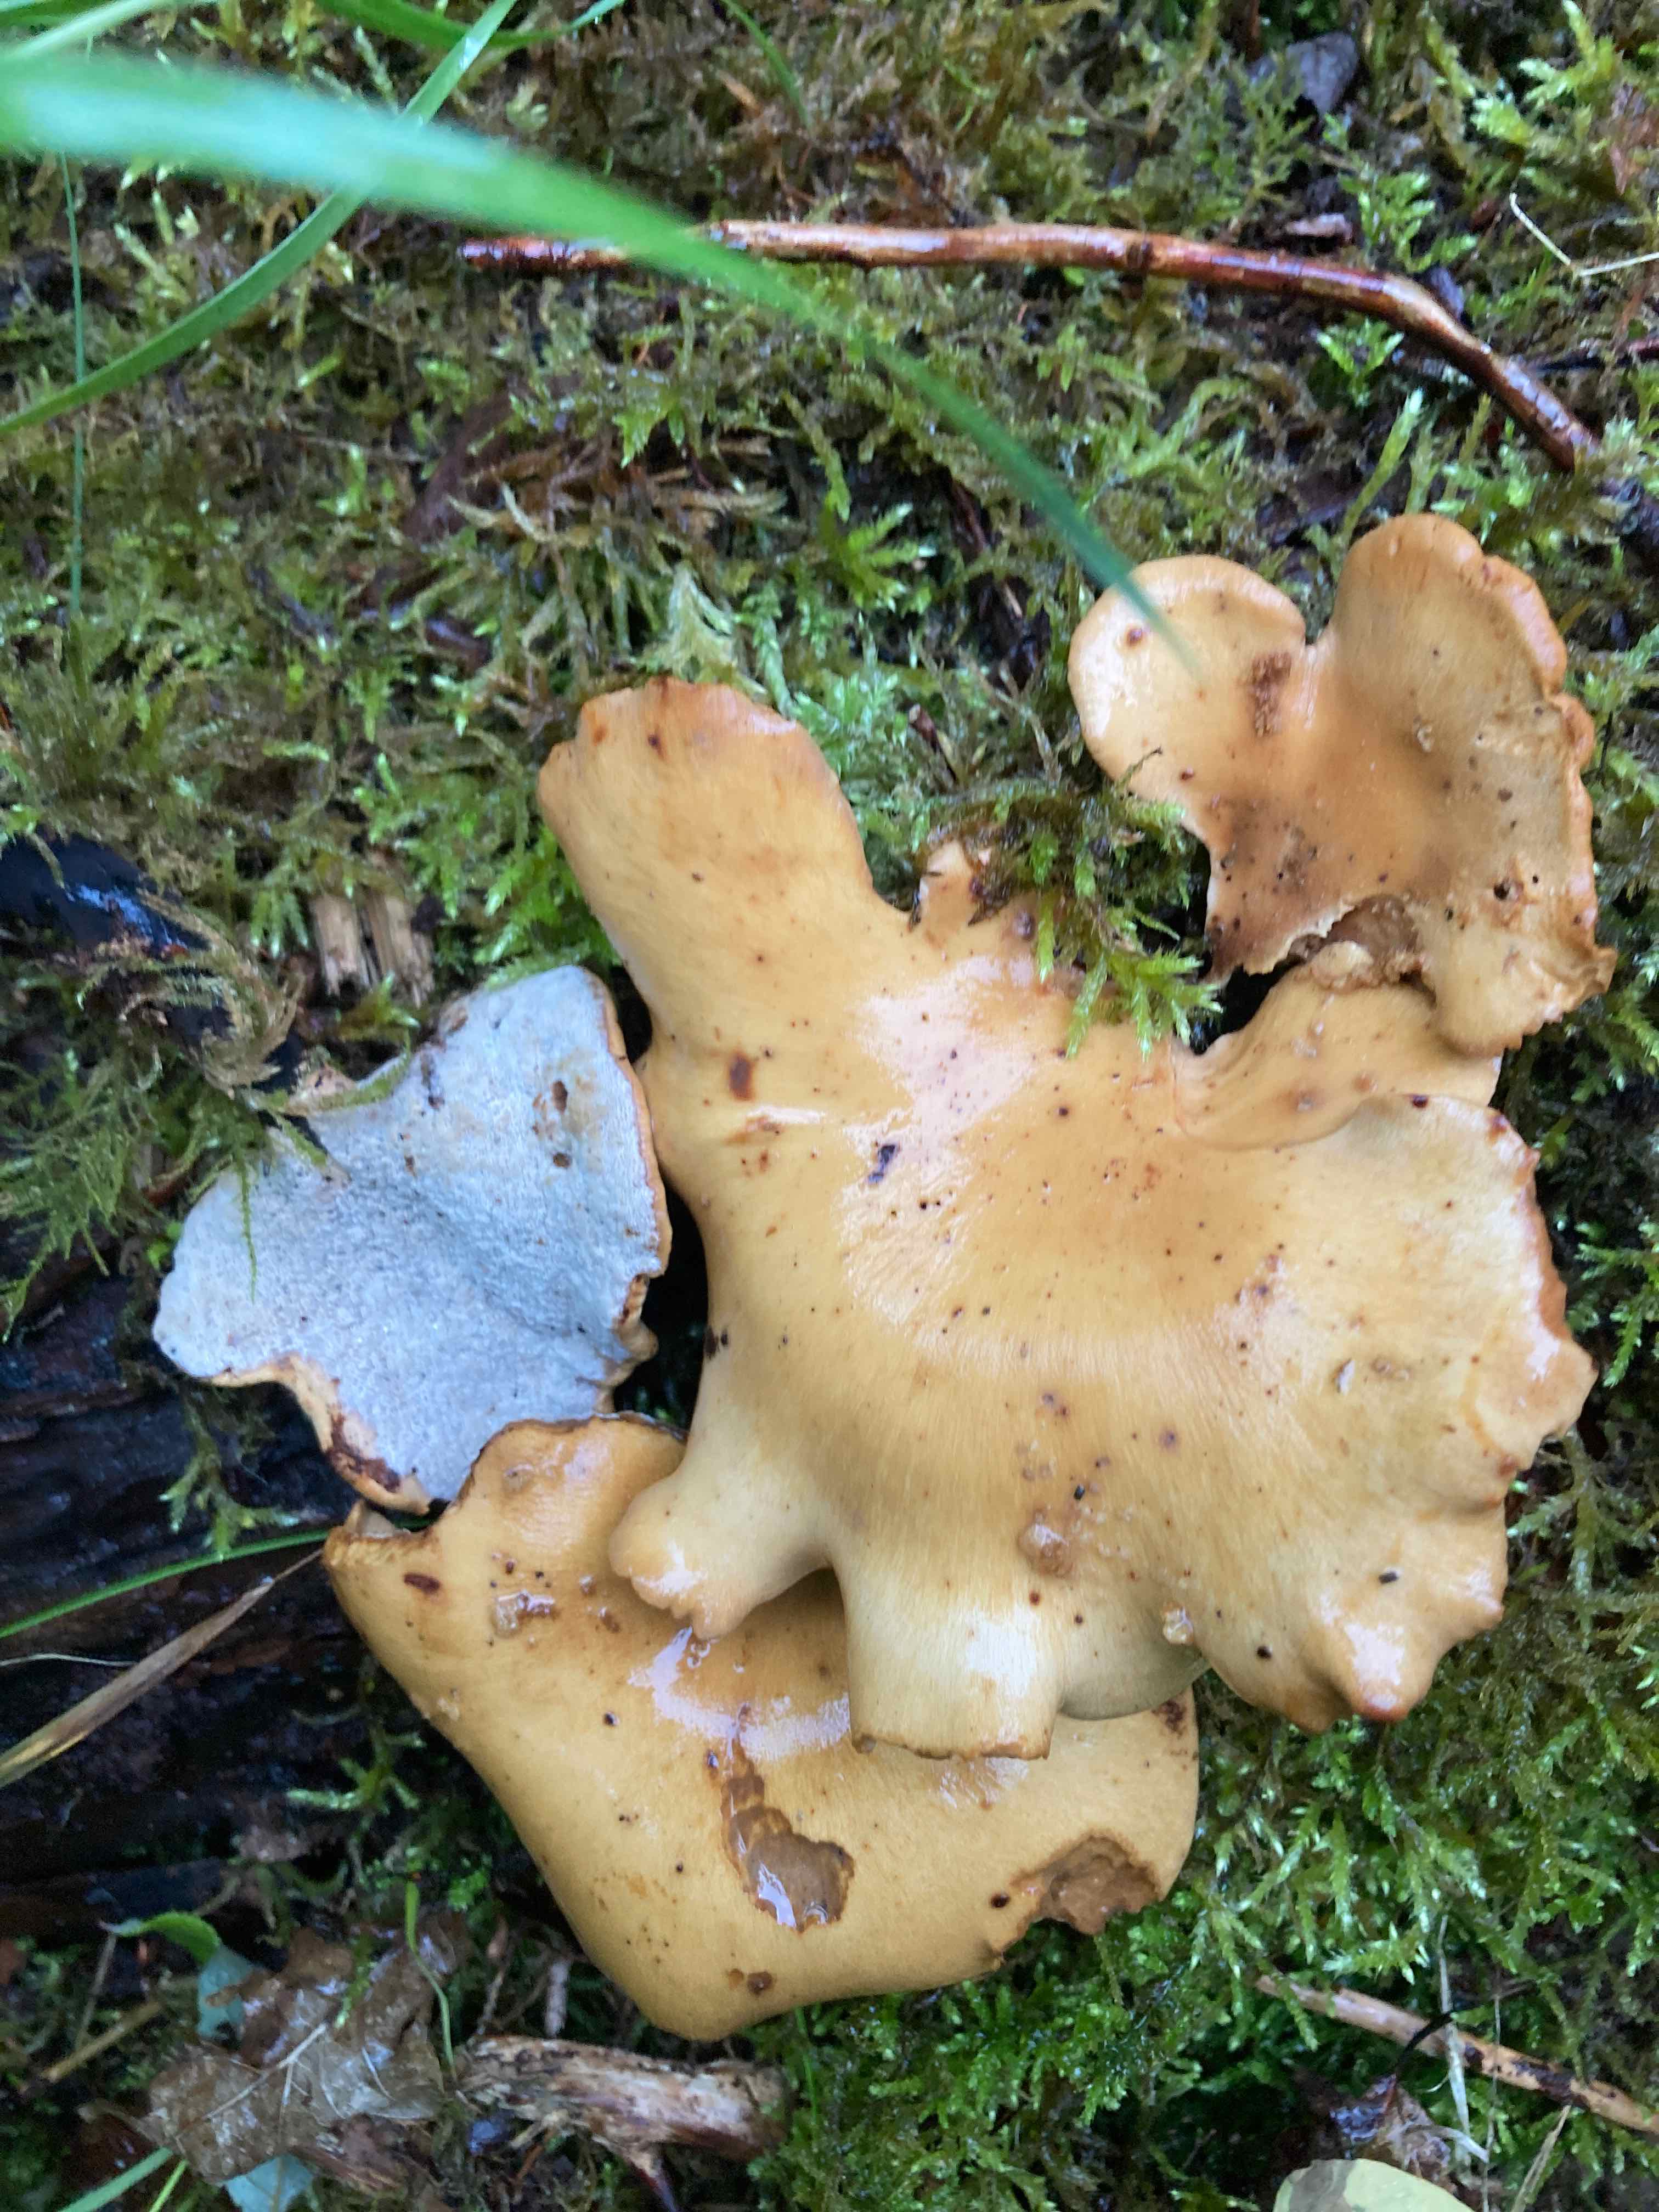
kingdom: Fungi
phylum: Basidiomycota
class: Agaricomycetes
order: Polyporales
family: Polyporaceae
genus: Cerioporus
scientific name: Cerioporus varius
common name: foranderlig stilkporesvamp
